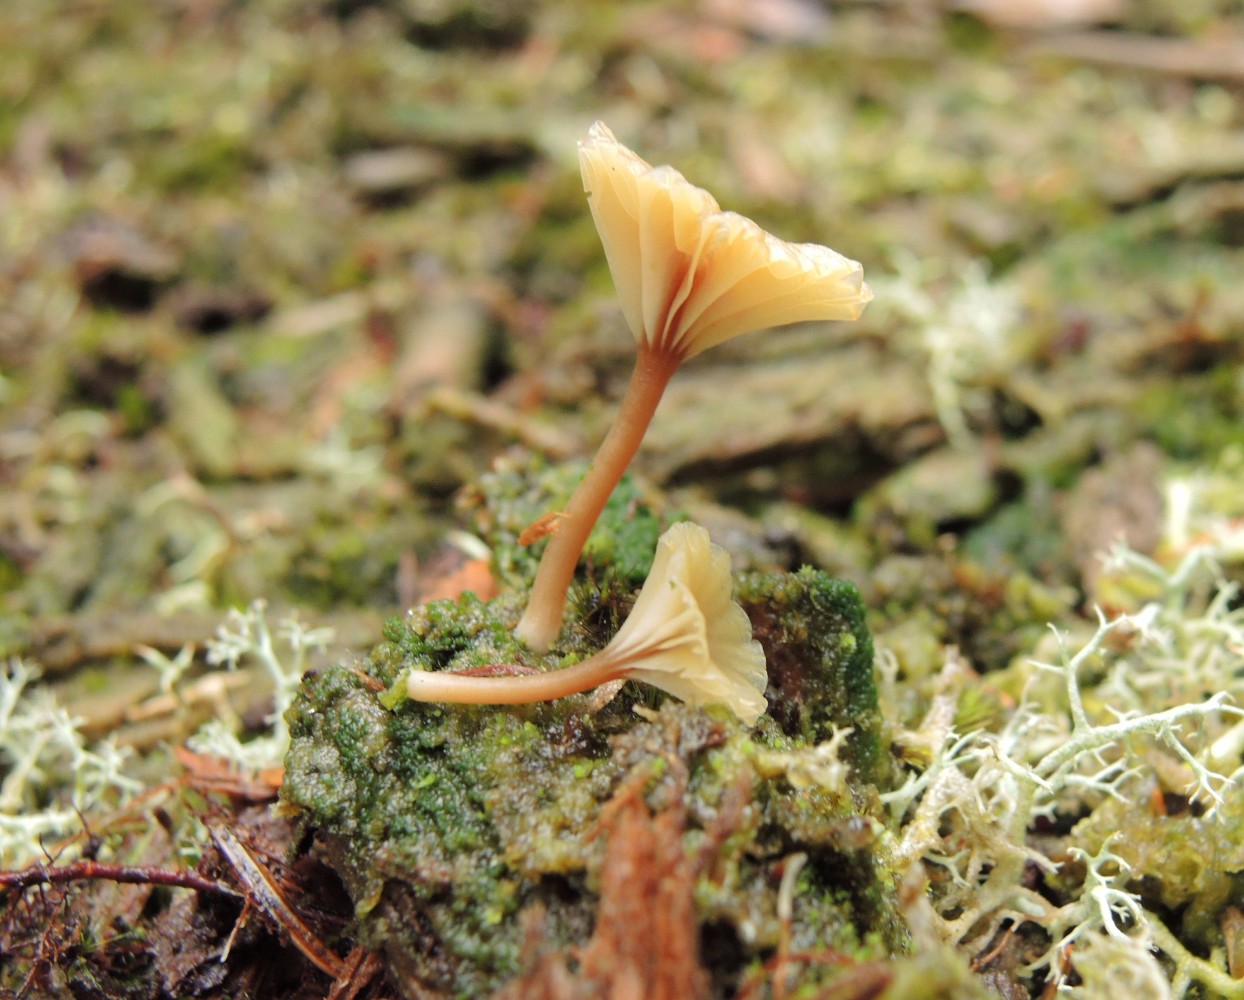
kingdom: Fungi
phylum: Basidiomycota
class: Agaricomycetes
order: Agaricales
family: Hygrophoraceae
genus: Lichenomphalia
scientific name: Lichenomphalia umbellifera
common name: tørve-lavhat
